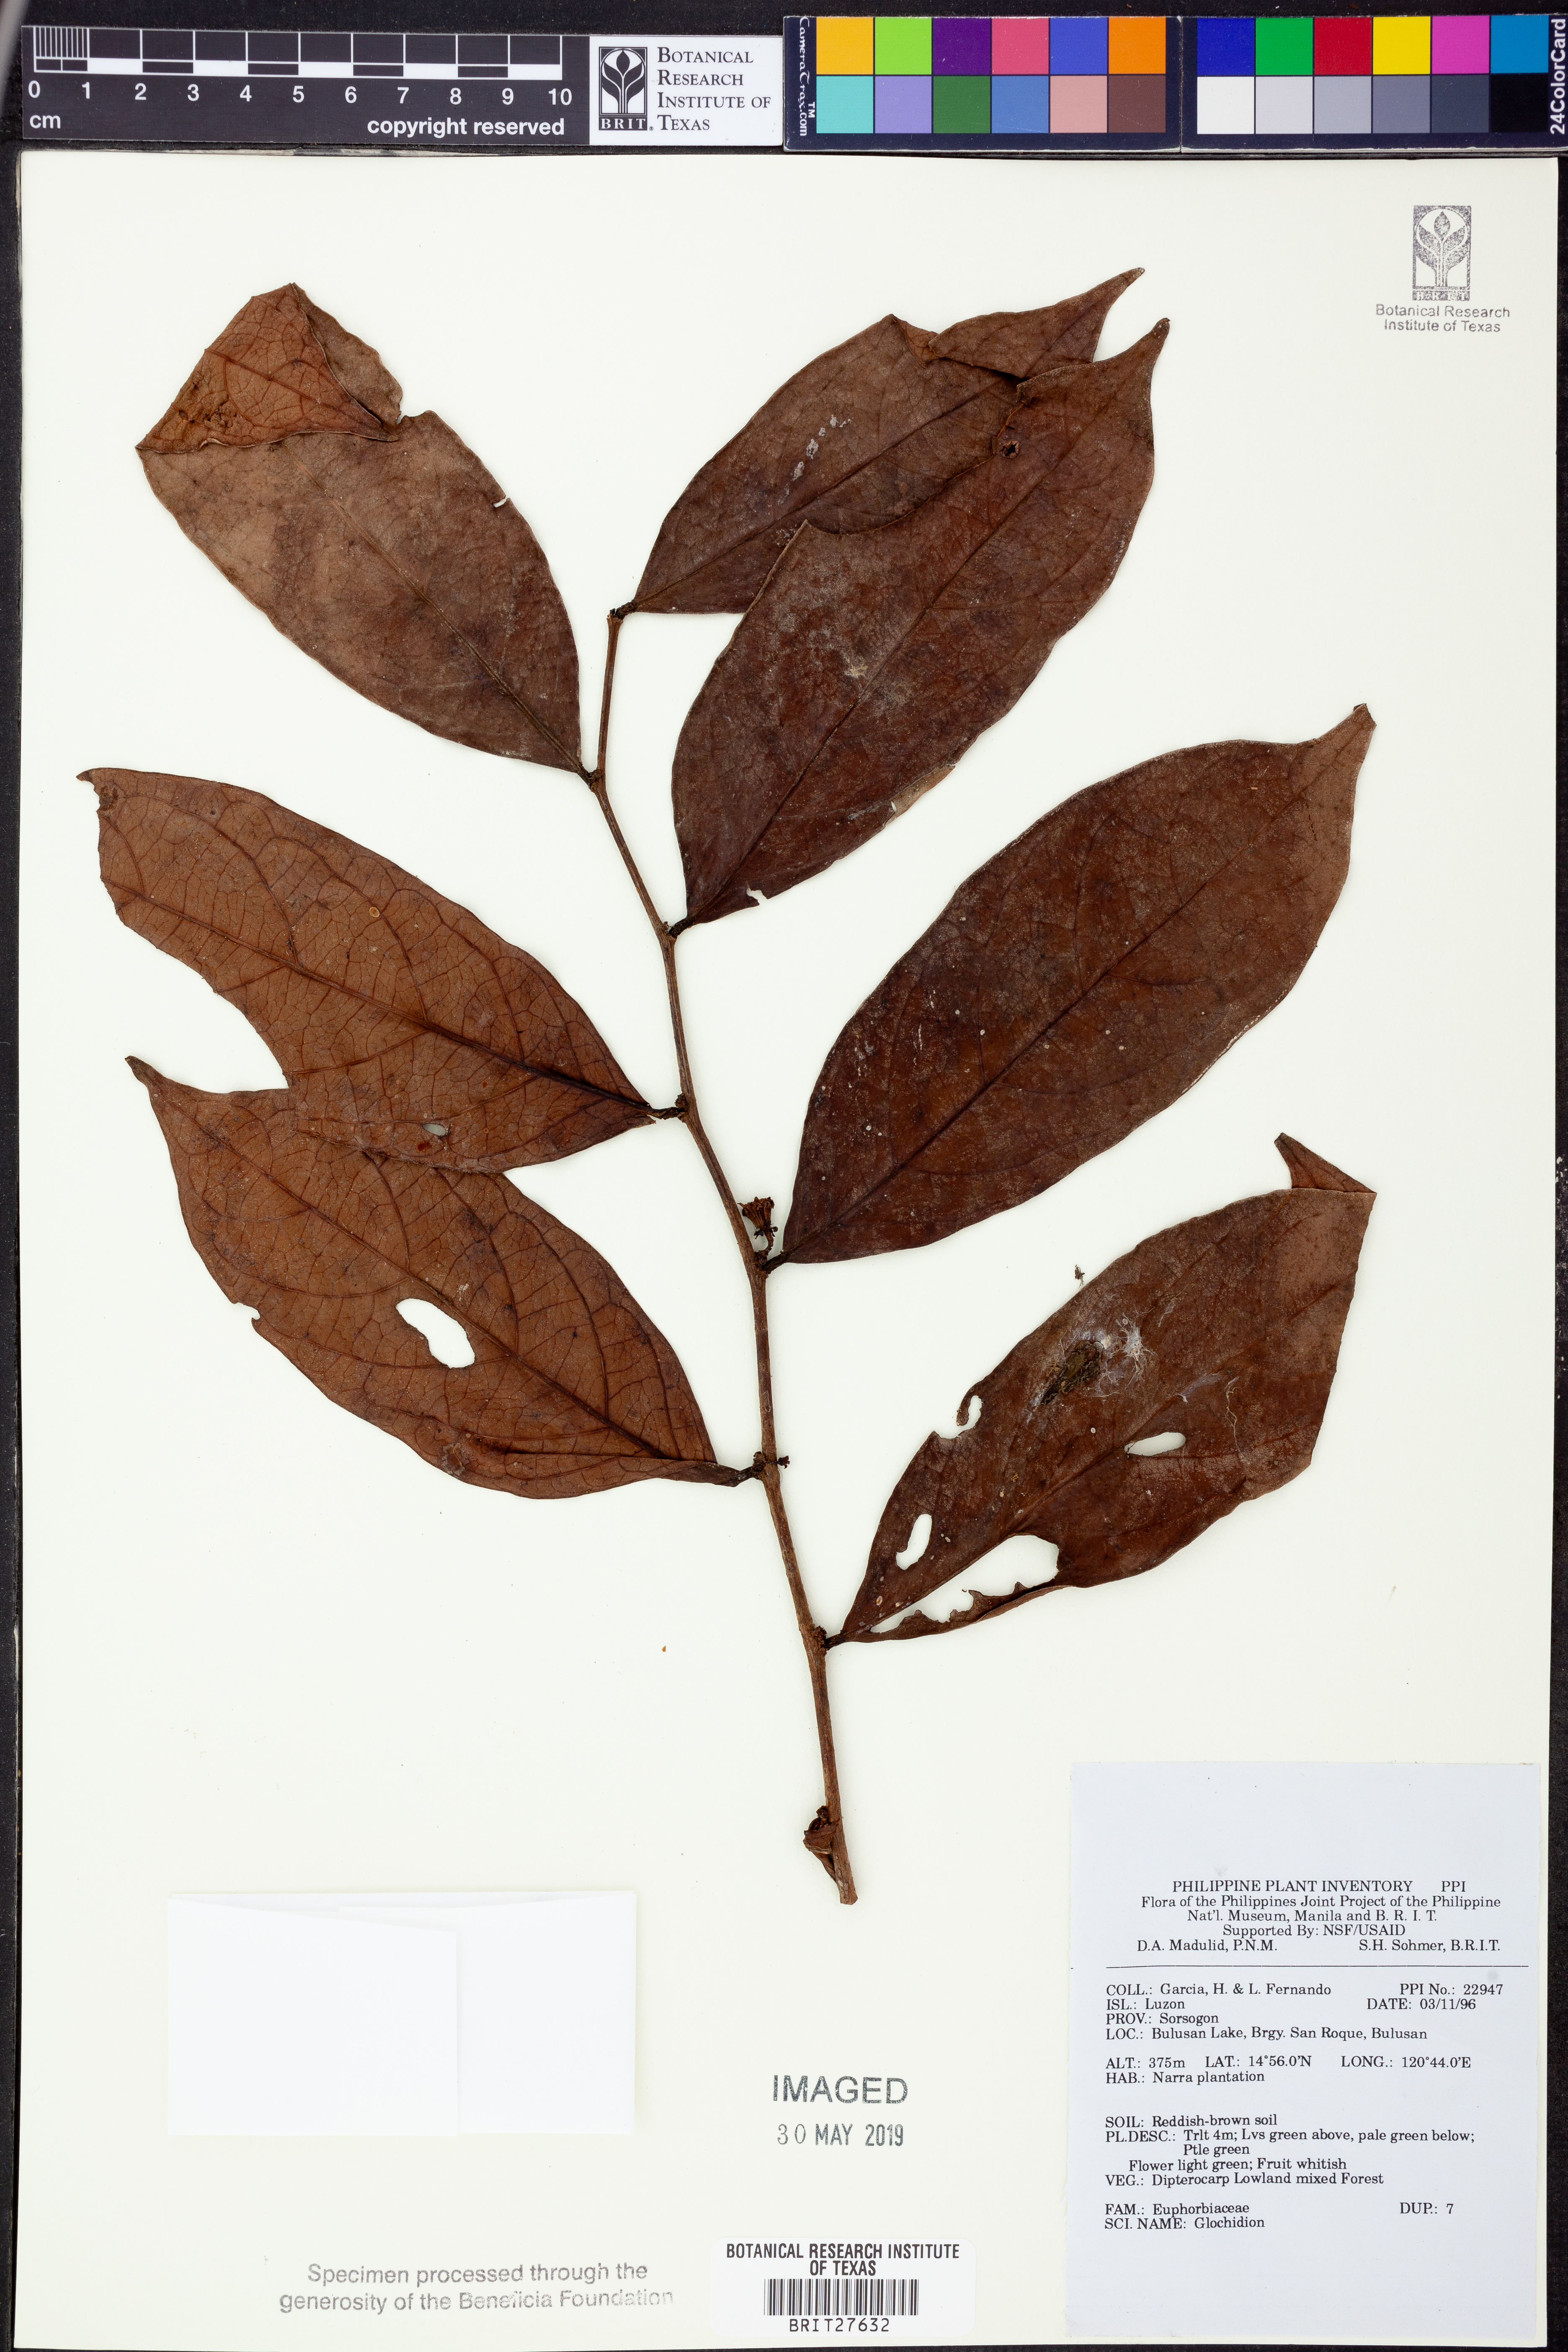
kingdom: Plantae
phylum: Tracheophyta
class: Magnoliopsida
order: Malpighiales
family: Phyllanthaceae
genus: Glochidion
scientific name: Glochidion
